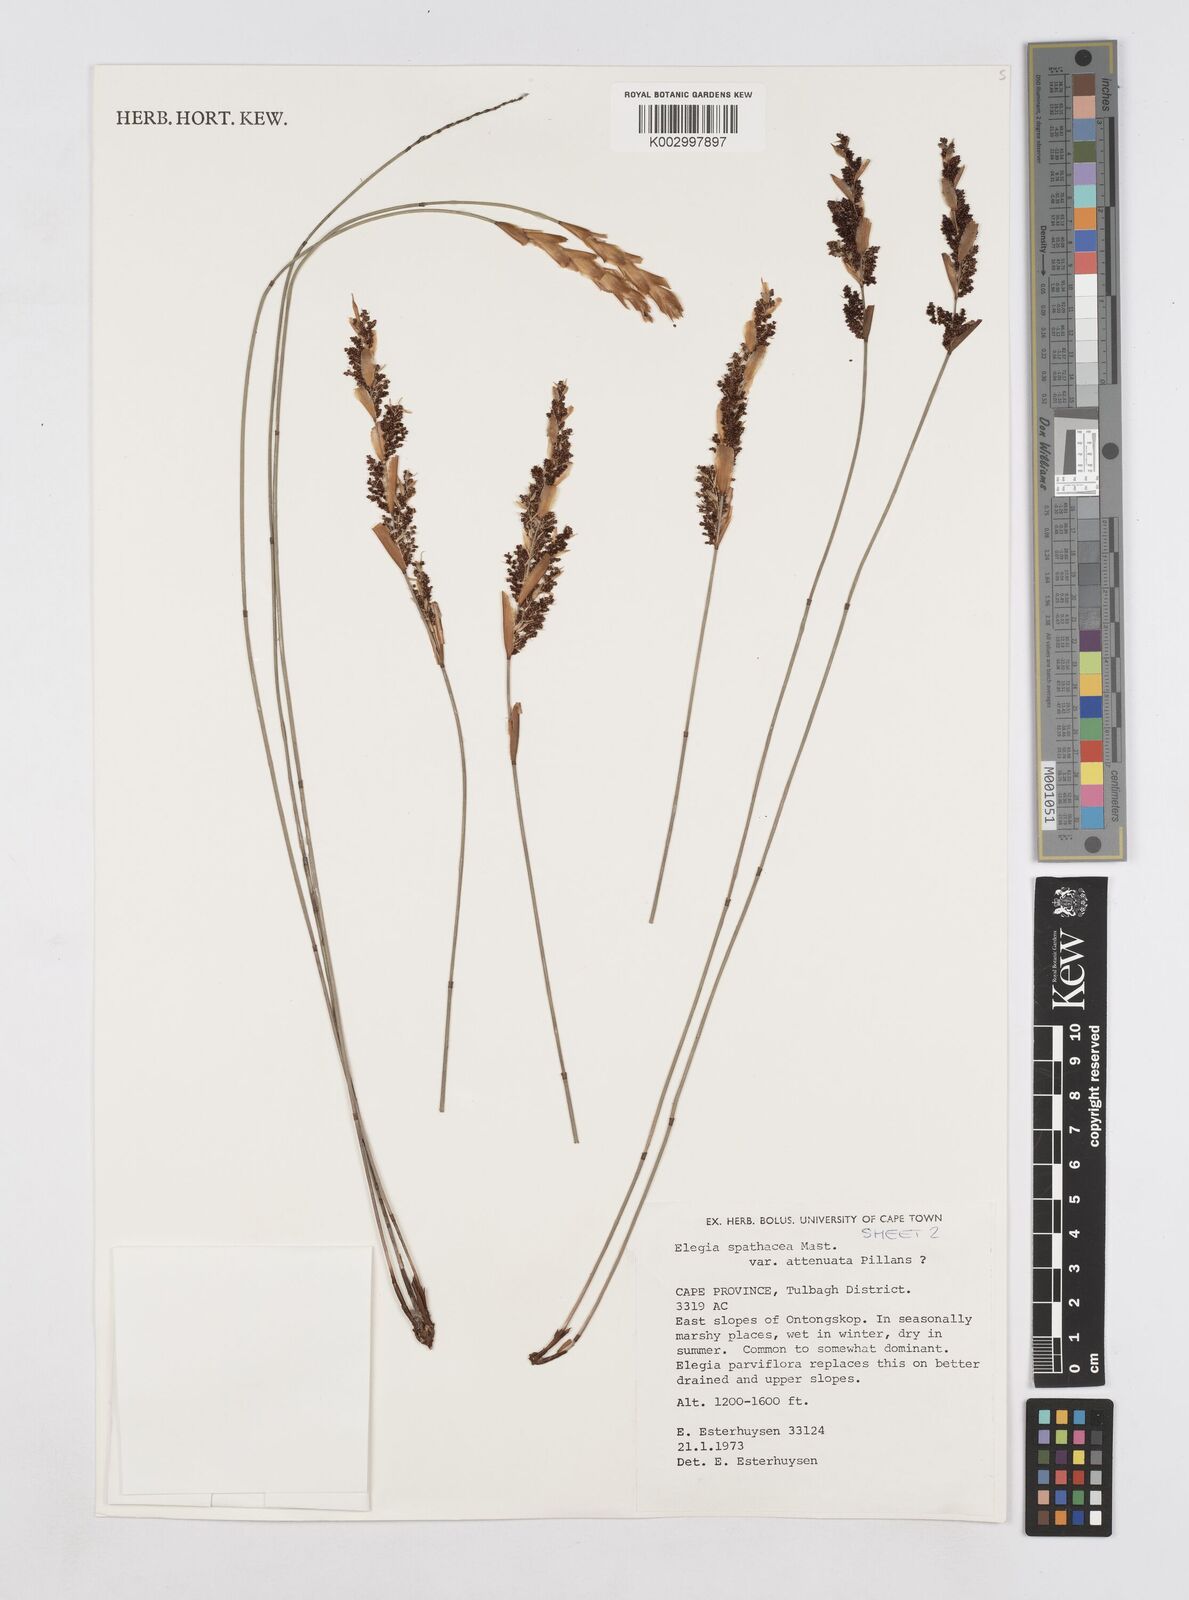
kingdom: Plantae
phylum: Tracheophyta
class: Liliopsida
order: Poales
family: Restionaceae
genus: Elegia
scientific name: Elegia rigida
